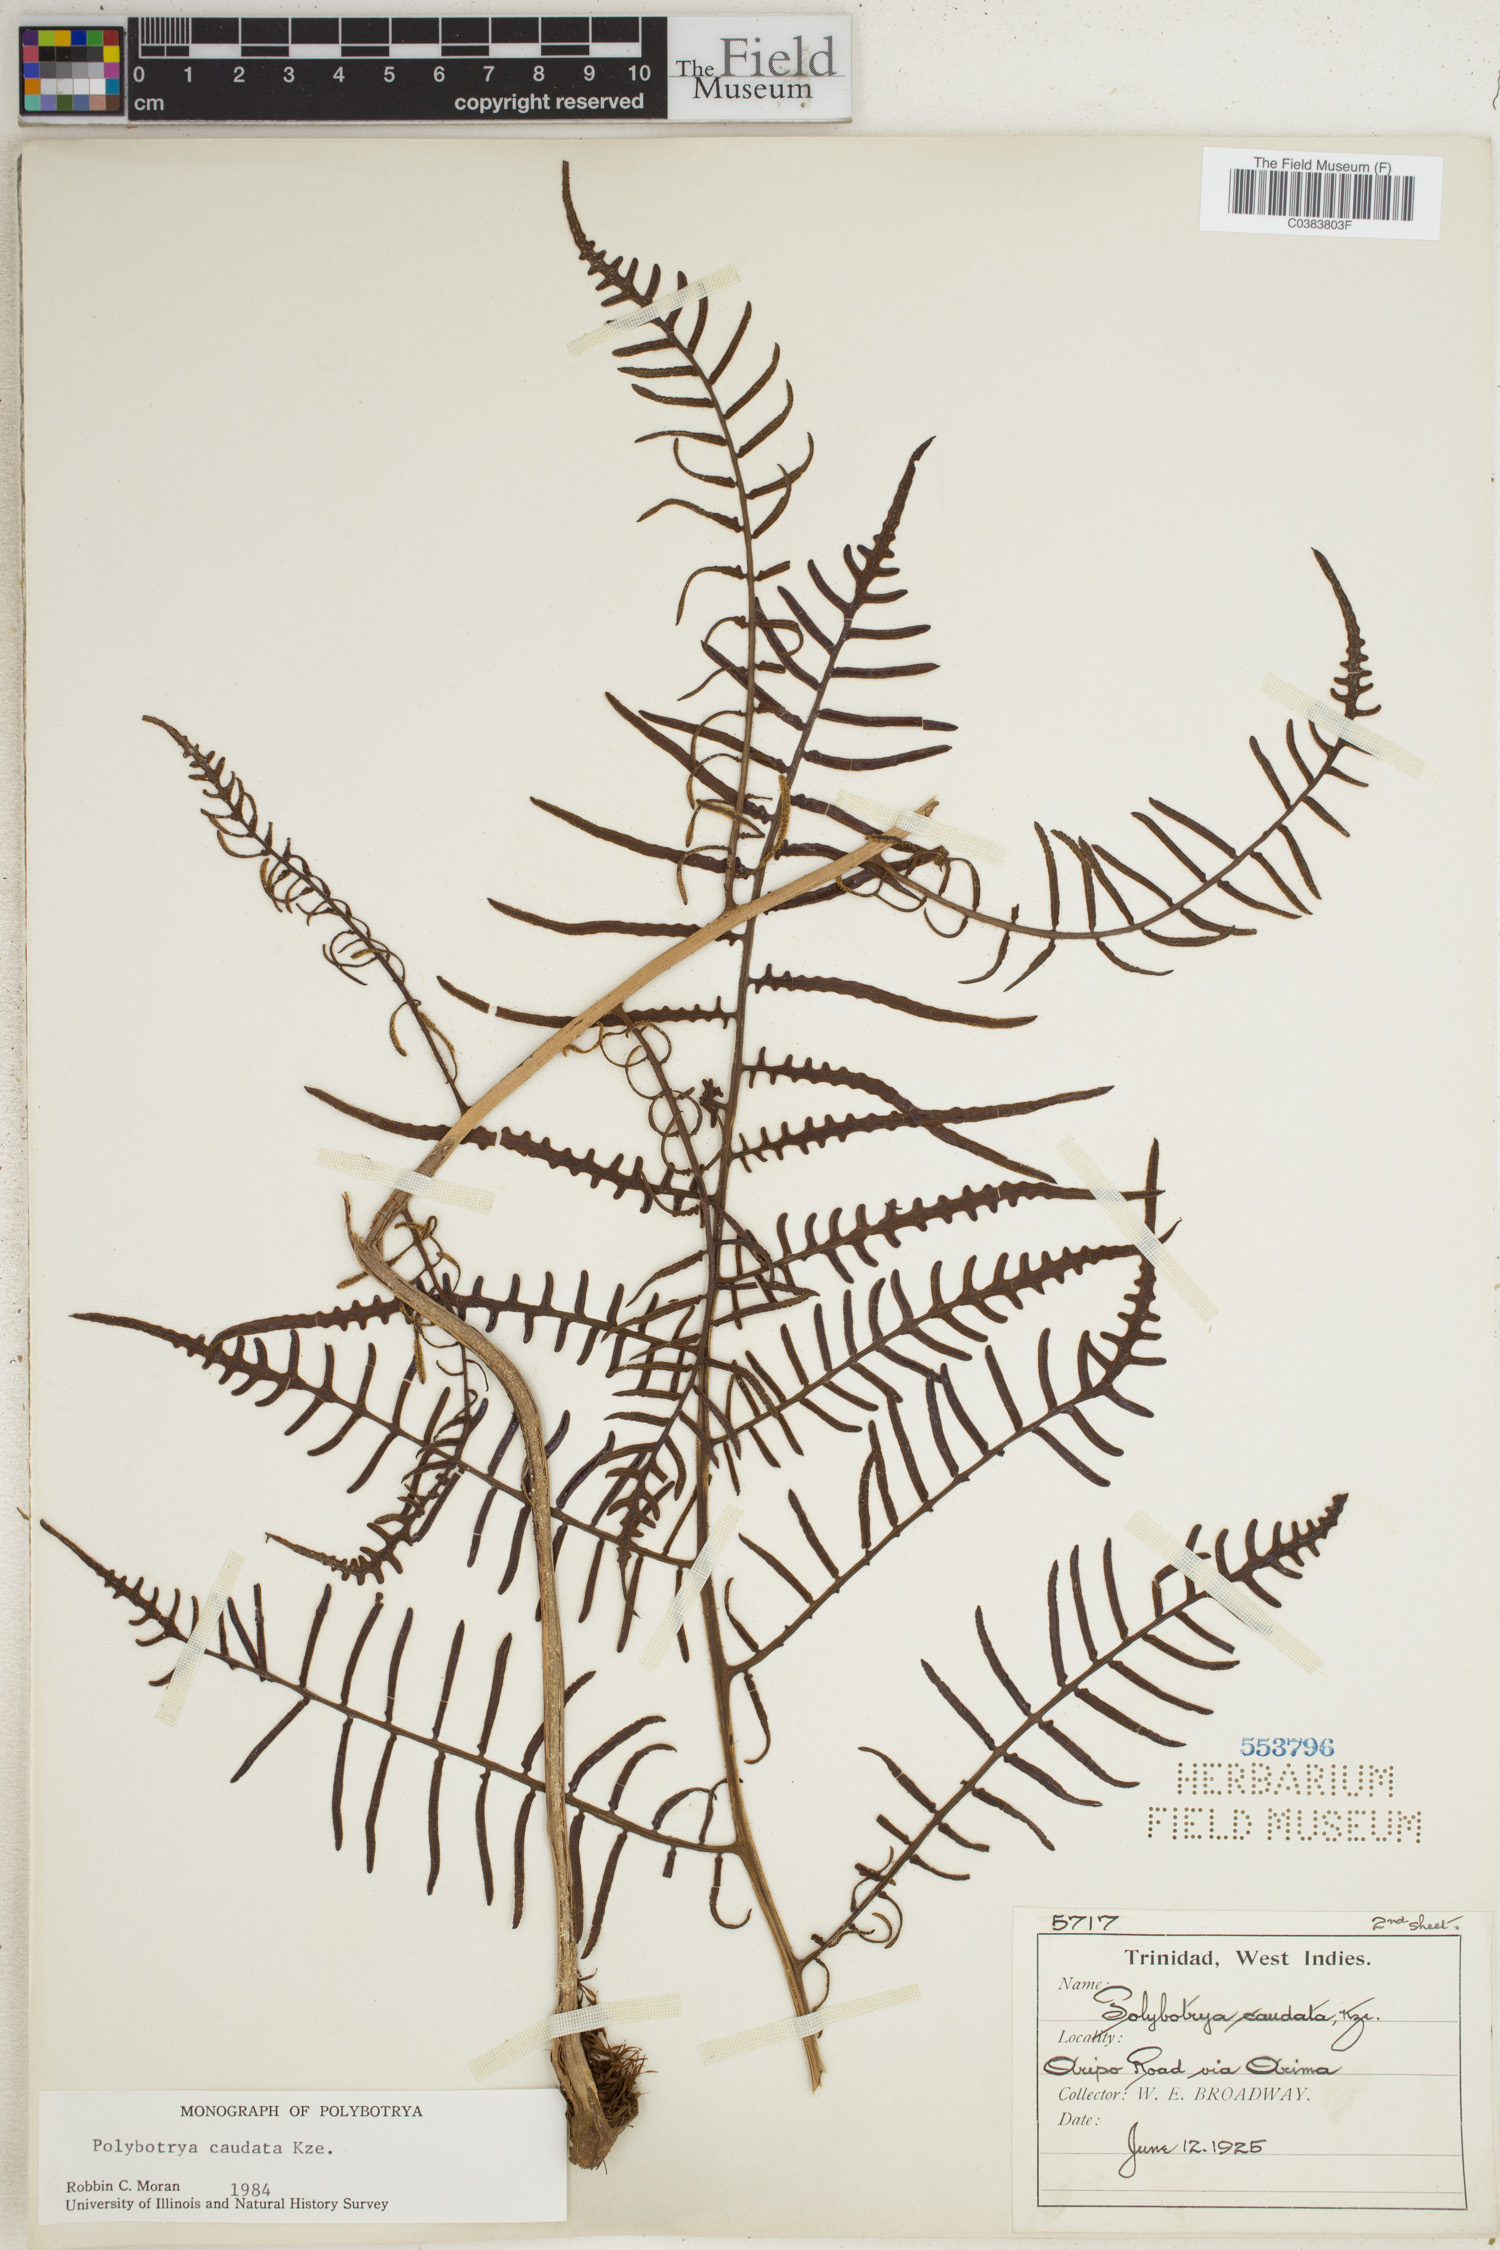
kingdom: Plantae
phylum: Tracheophyta
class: Polypodiopsida
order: Polypodiales
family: Dryopteridaceae
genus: Polybotrya
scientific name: Polybotrya caudata
